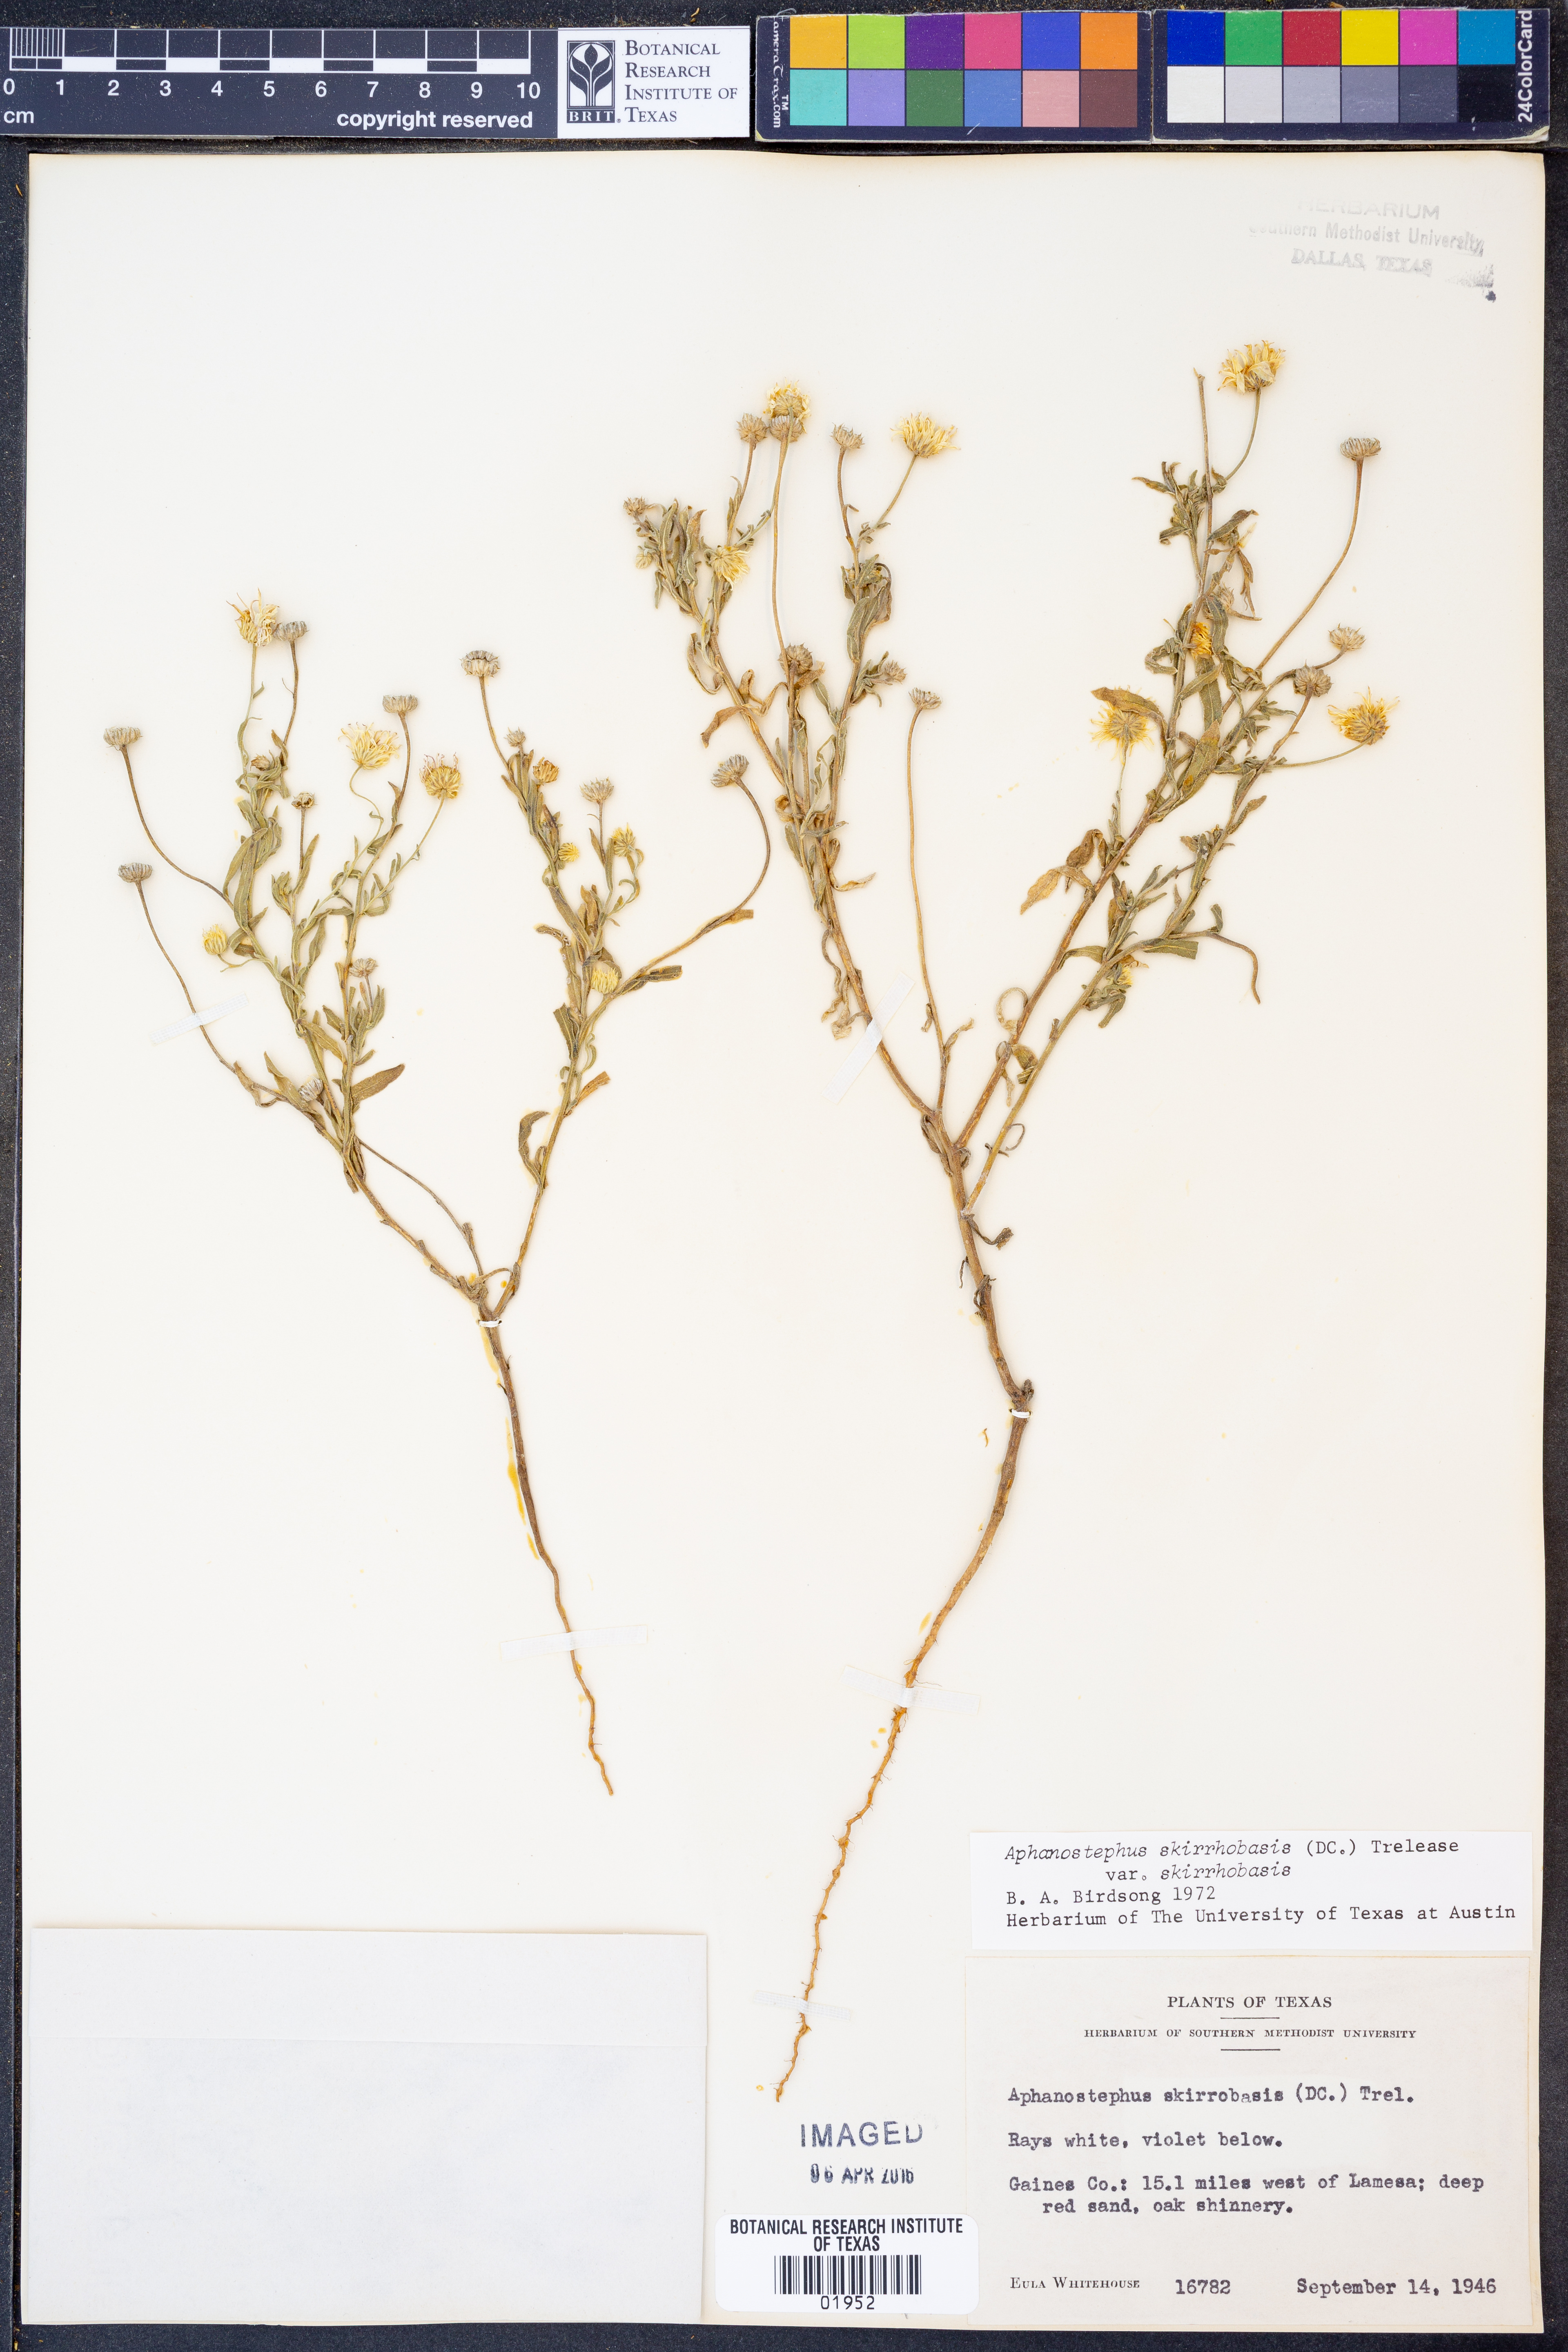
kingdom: Plantae
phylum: Tracheophyta
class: Magnoliopsida
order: Asterales
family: Asteraceae
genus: Aphanostephus
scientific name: Aphanostephus skirrhobasis
